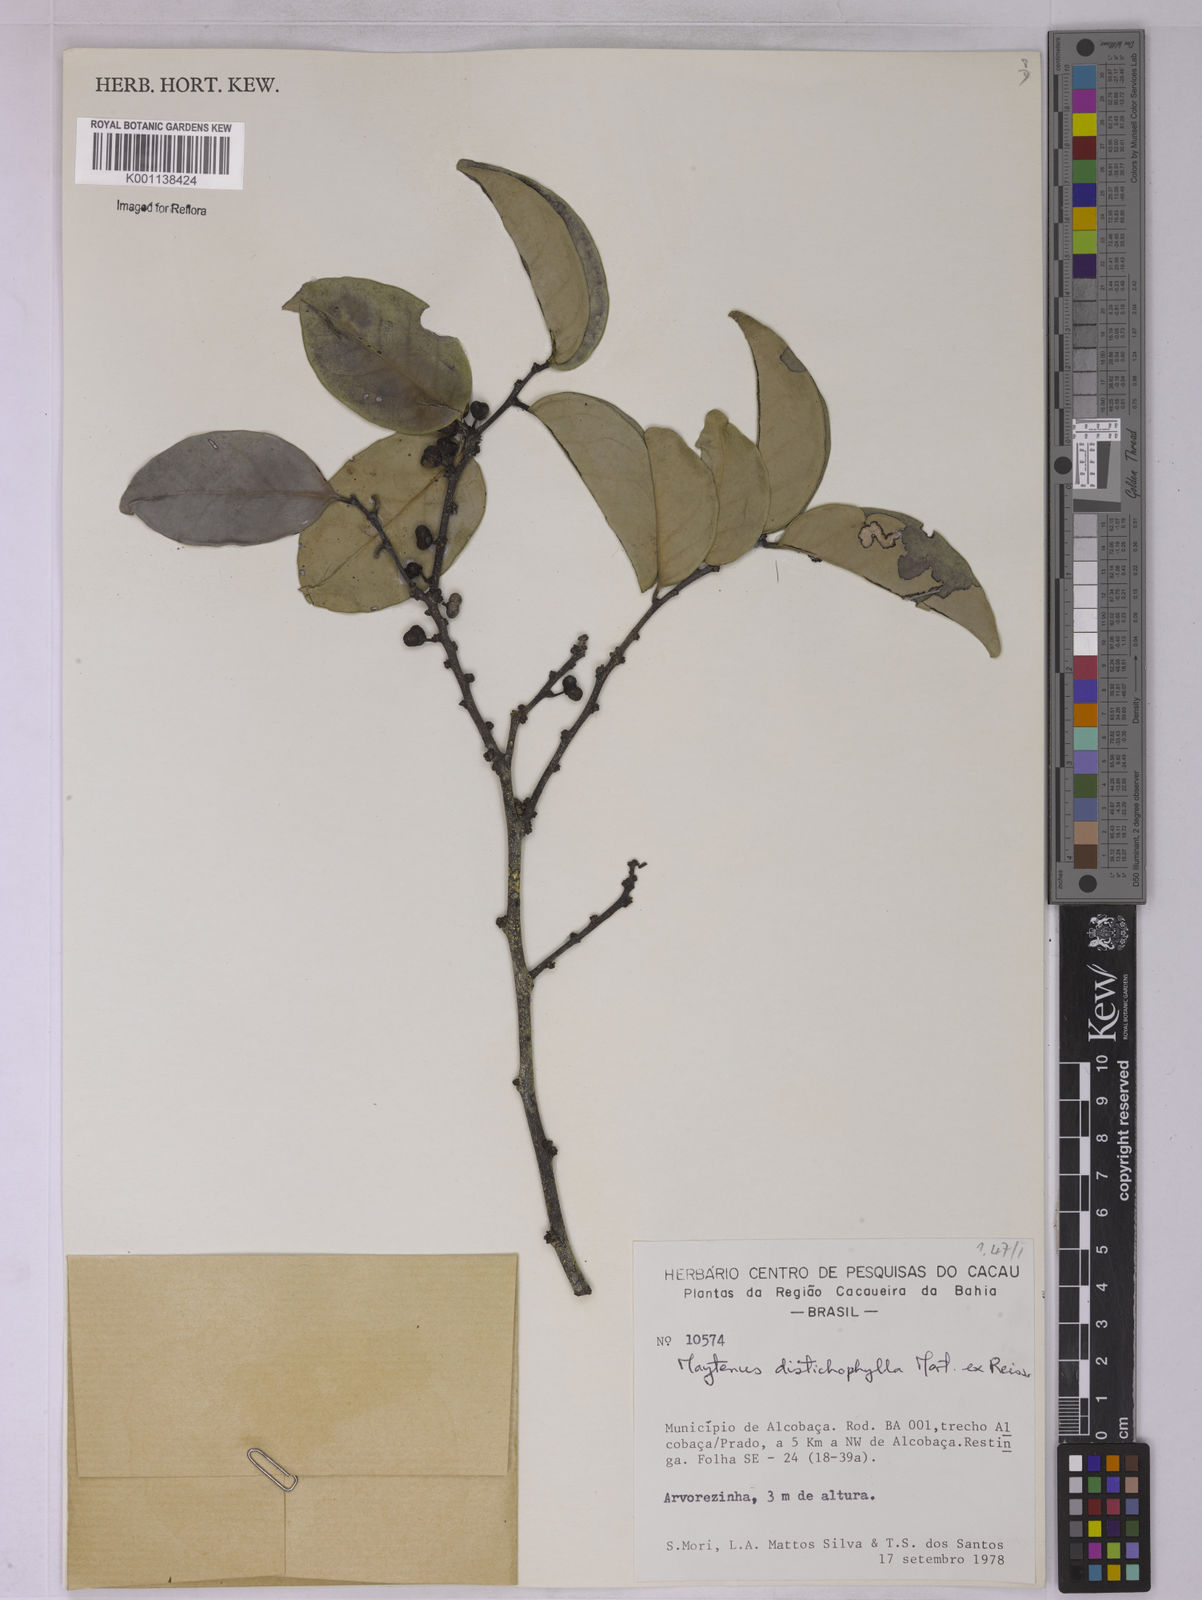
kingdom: Plantae
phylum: Tracheophyta
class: Magnoliopsida
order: Celastrales
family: Celastraceae
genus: Monteverdia
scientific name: Monteverdia distichophylla
